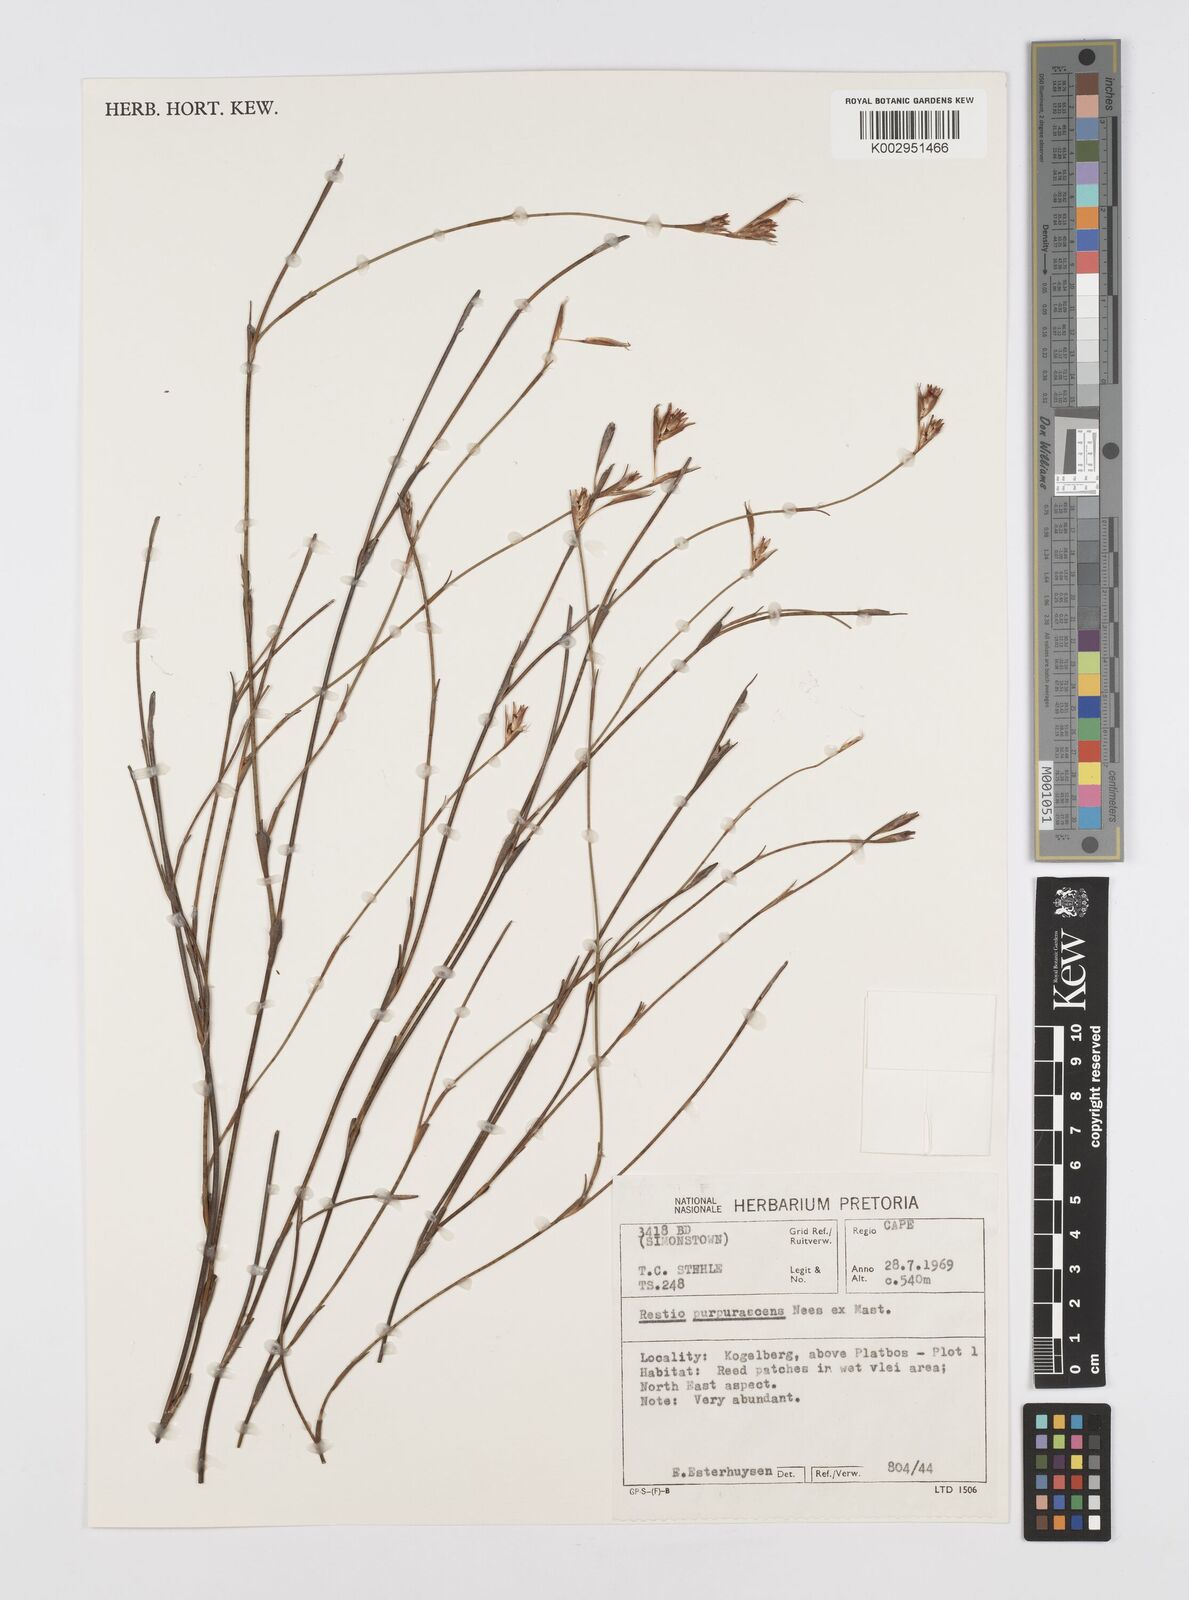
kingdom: Plantae
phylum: Tracheophyta
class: Liliopsida
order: Poales
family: Restionaceae
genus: Restio
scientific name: Restio purpurascens
